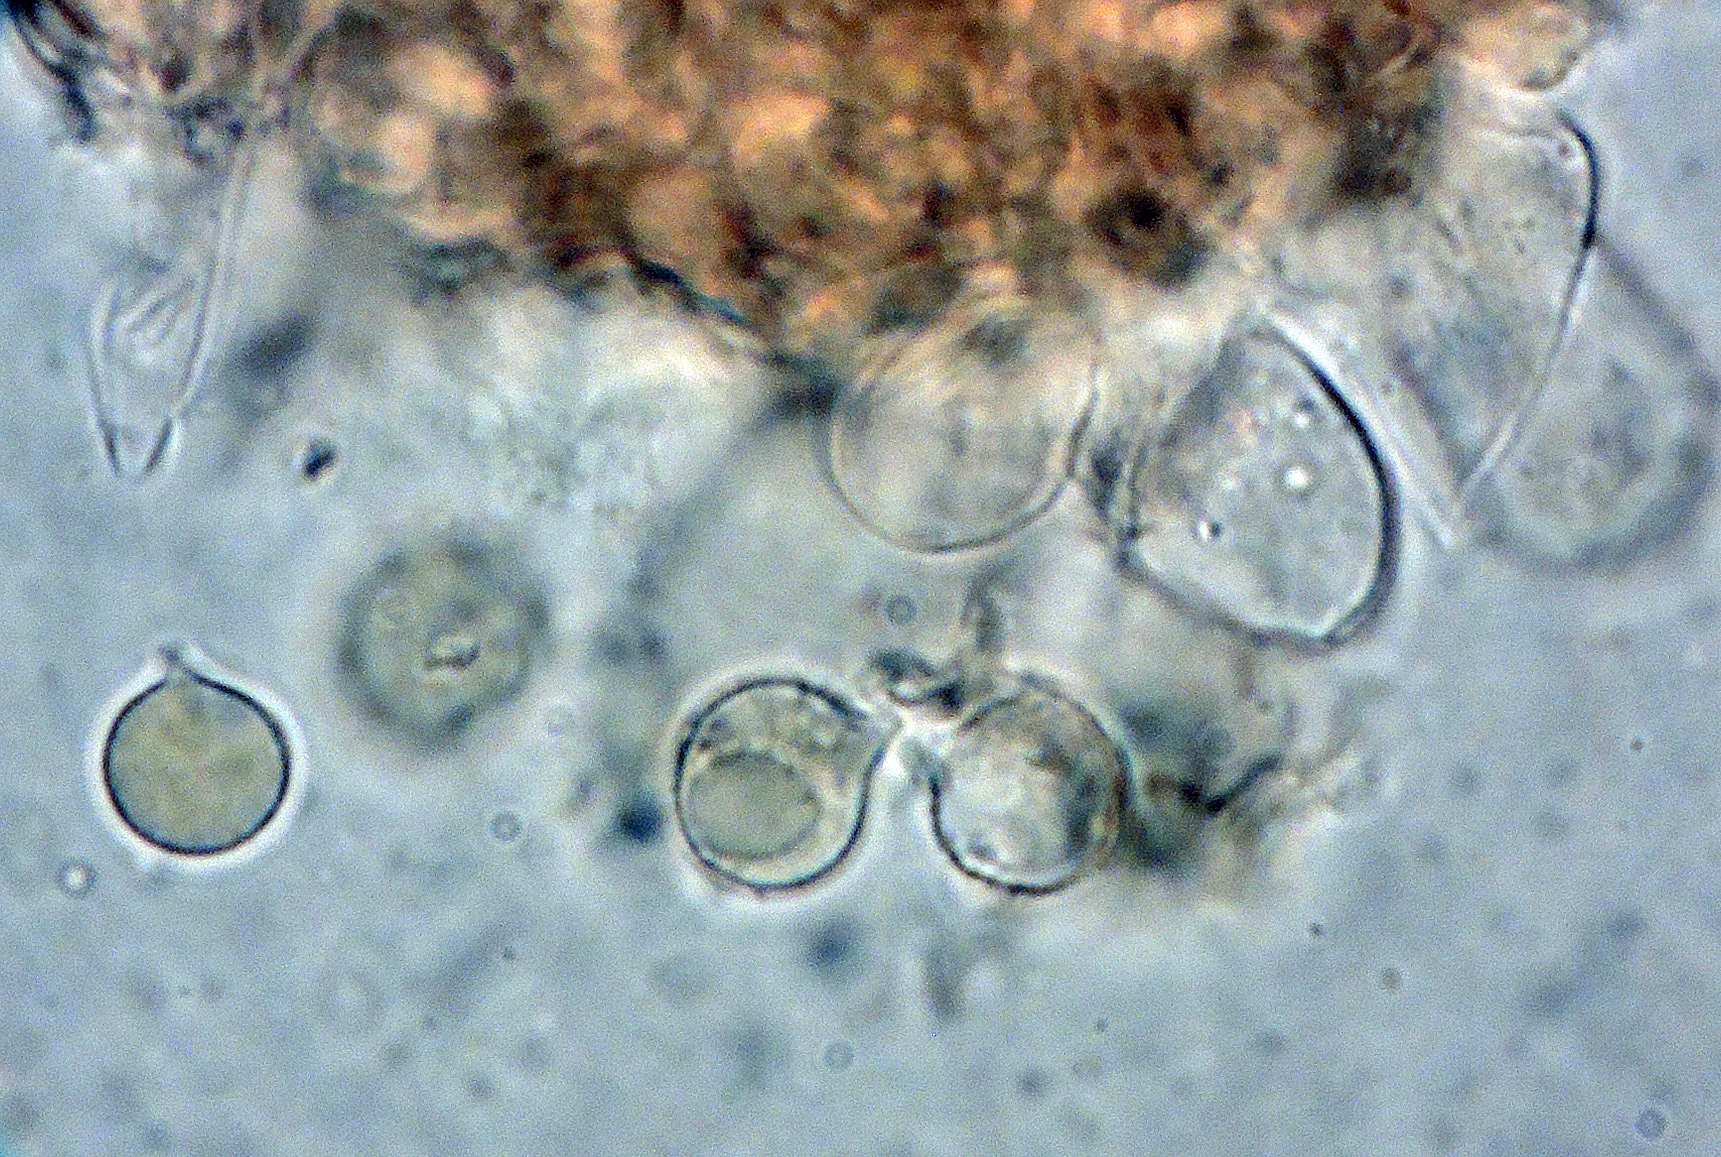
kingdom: Fungi
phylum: Basidiomycota
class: Agaricomycetes
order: Agaricales
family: Radulomycetaceae
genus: Radulomyces
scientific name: Radulomyces rickii
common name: rundsporet naftalinskind
